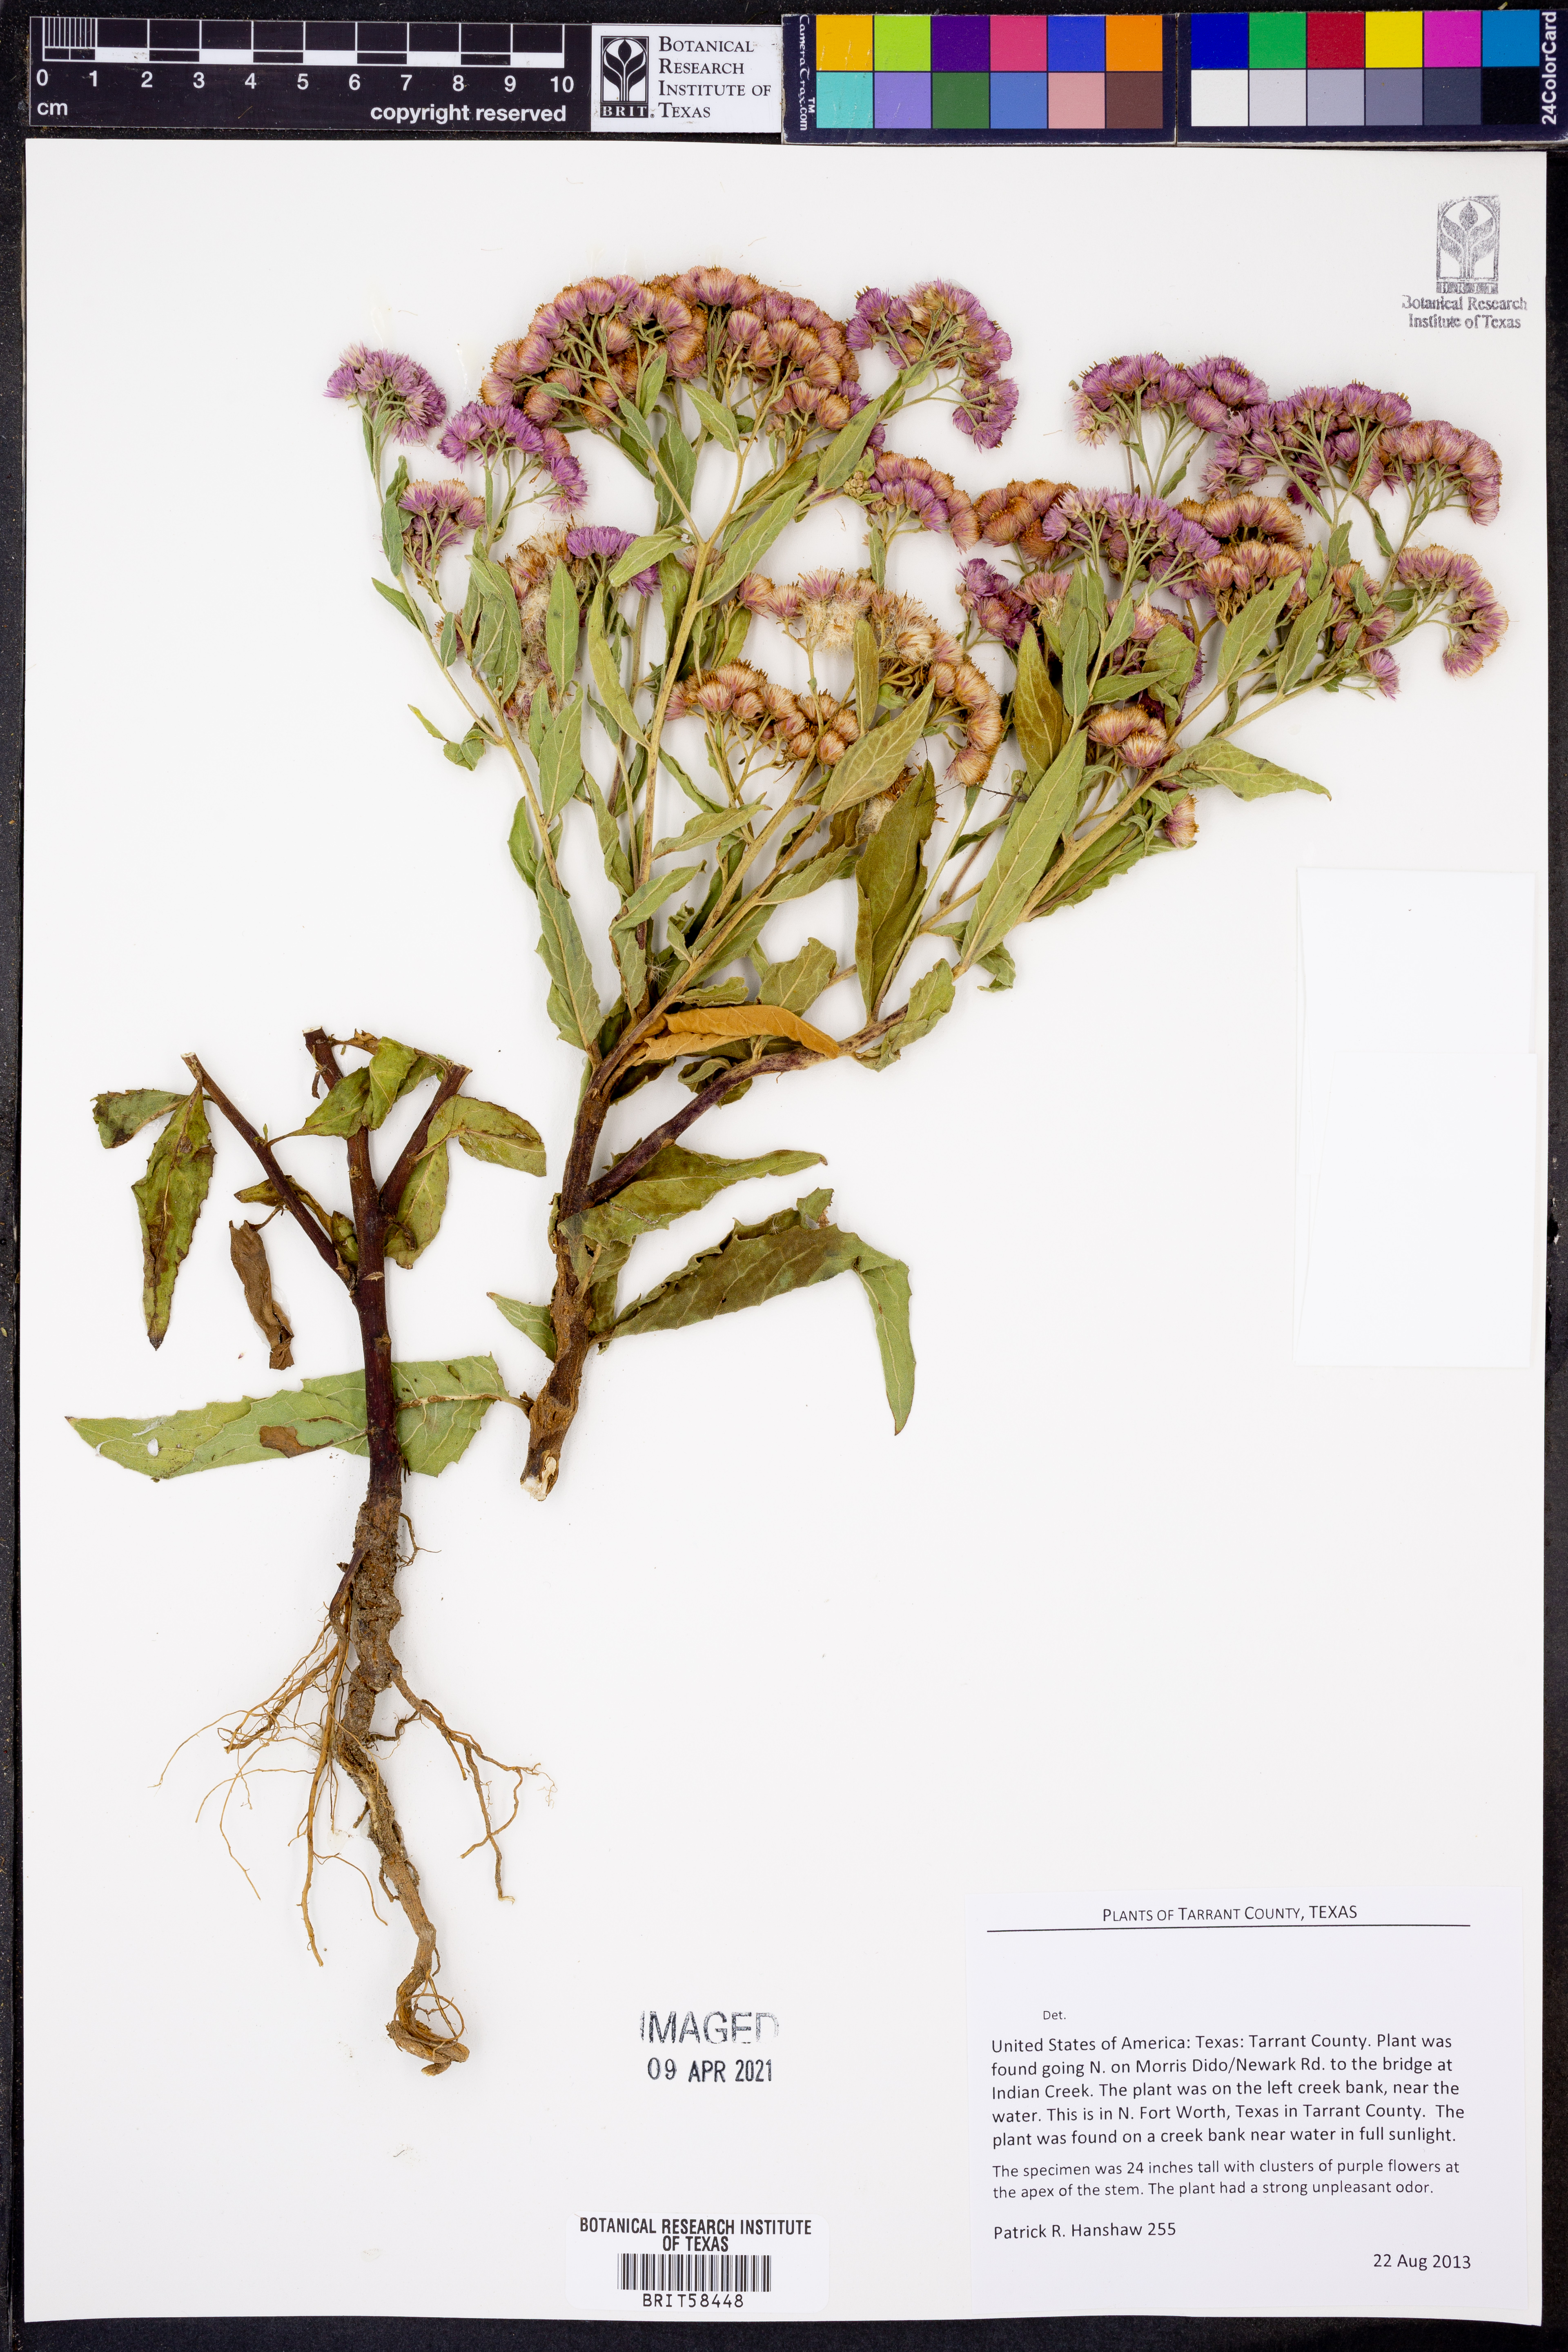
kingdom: Plantae
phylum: Tracheophyta
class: Magnoliopsida
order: Asterales
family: Asteraceae
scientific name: Asteraceae
